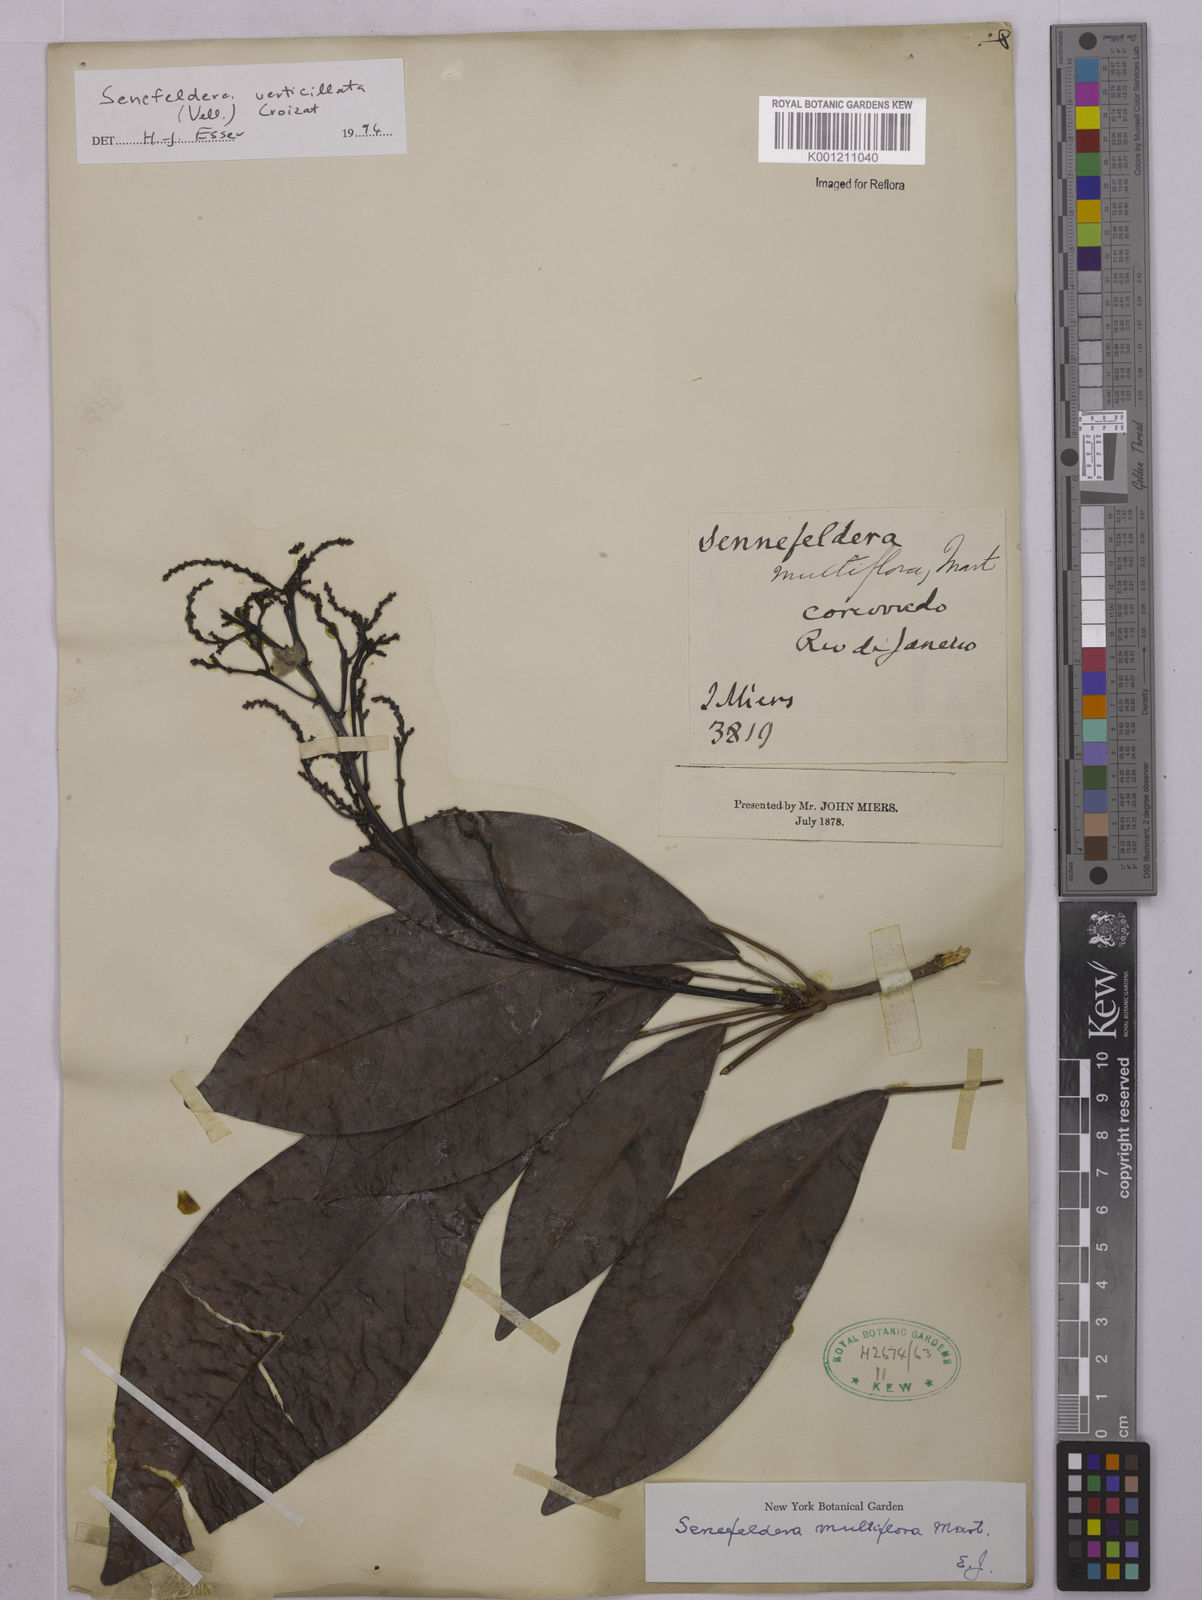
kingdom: Plantae
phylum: Tracheophyta
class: Magnoliopsida
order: Malpighiales
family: Euphorbiaceae
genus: Senefeldera
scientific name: Senefeldera verticillata
